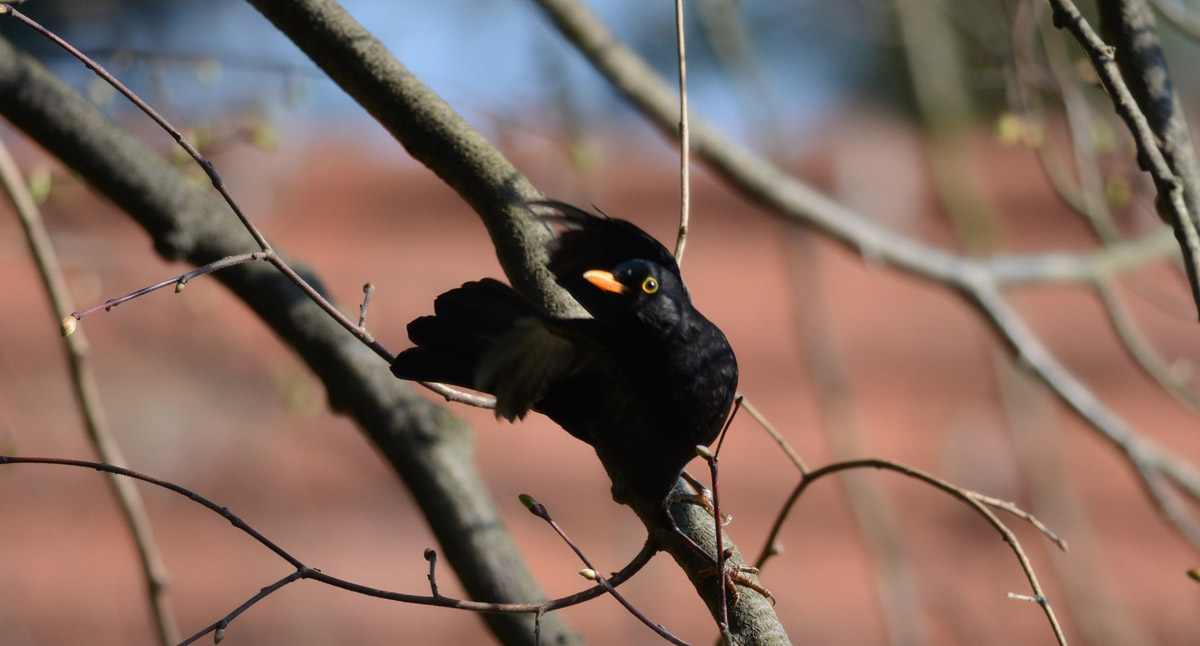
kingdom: Animalia
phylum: Chordata
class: Aves
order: Passeriformes
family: Turdidae
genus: Turdus
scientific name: Turdus merula
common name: Common blackbird
